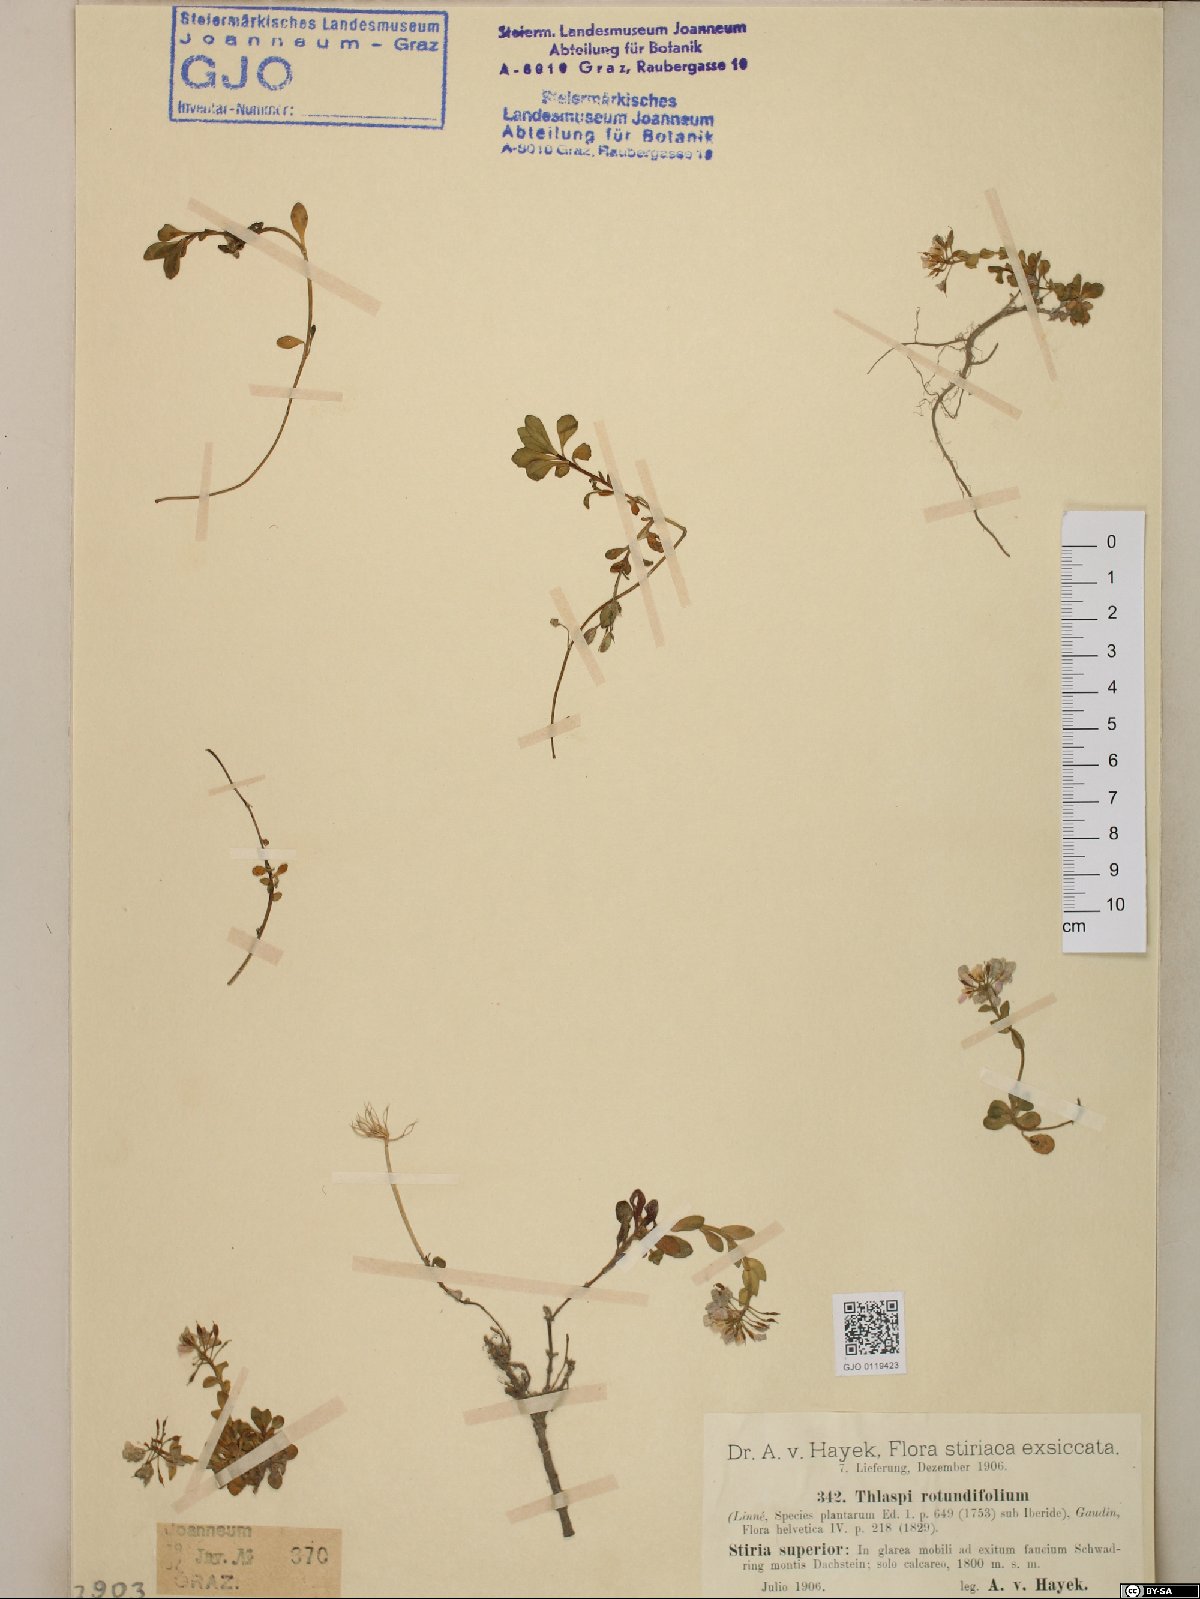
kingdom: Plantae
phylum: Tracheophyta
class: Magnoliopsida
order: Brassicales
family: Brassicaceae
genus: Noccaea
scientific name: Noccaea rotundifolia
